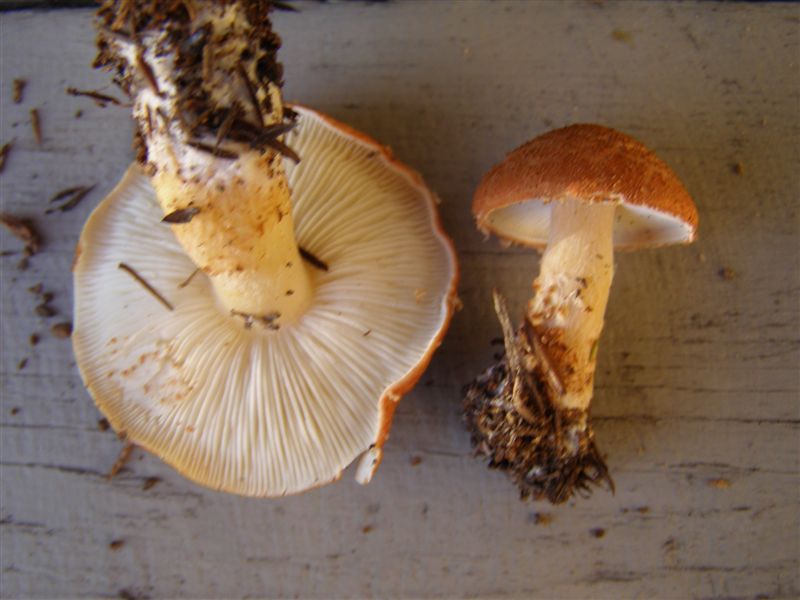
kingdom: Fungi
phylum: Basidiomycota
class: Agaricomycetes
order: Agaricales
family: Agaricaceae
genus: Cystodermella
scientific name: Cystodermella cinnabarina
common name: cinnober-grynhat
